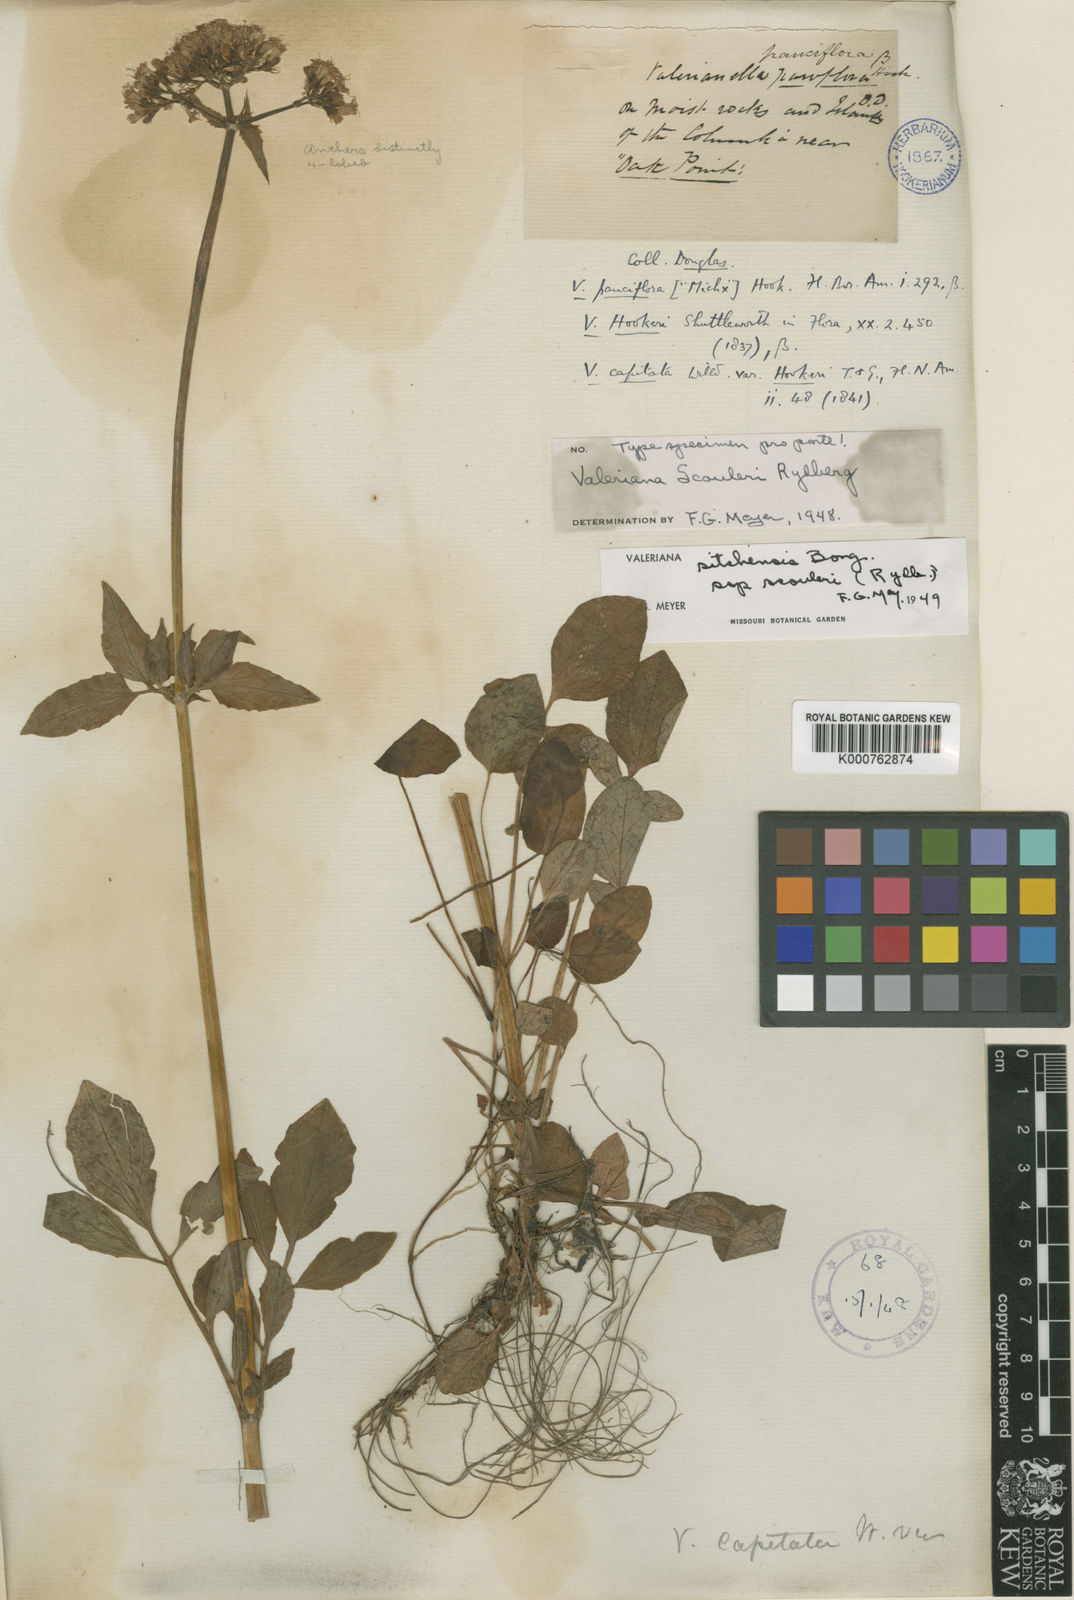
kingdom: Plantae
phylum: Tracheophyta
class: Magnoliopsida
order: Dipsacales
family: Caprifoliaceae
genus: Valeriana
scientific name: Valeriana sitchensis
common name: Pacific valerian
